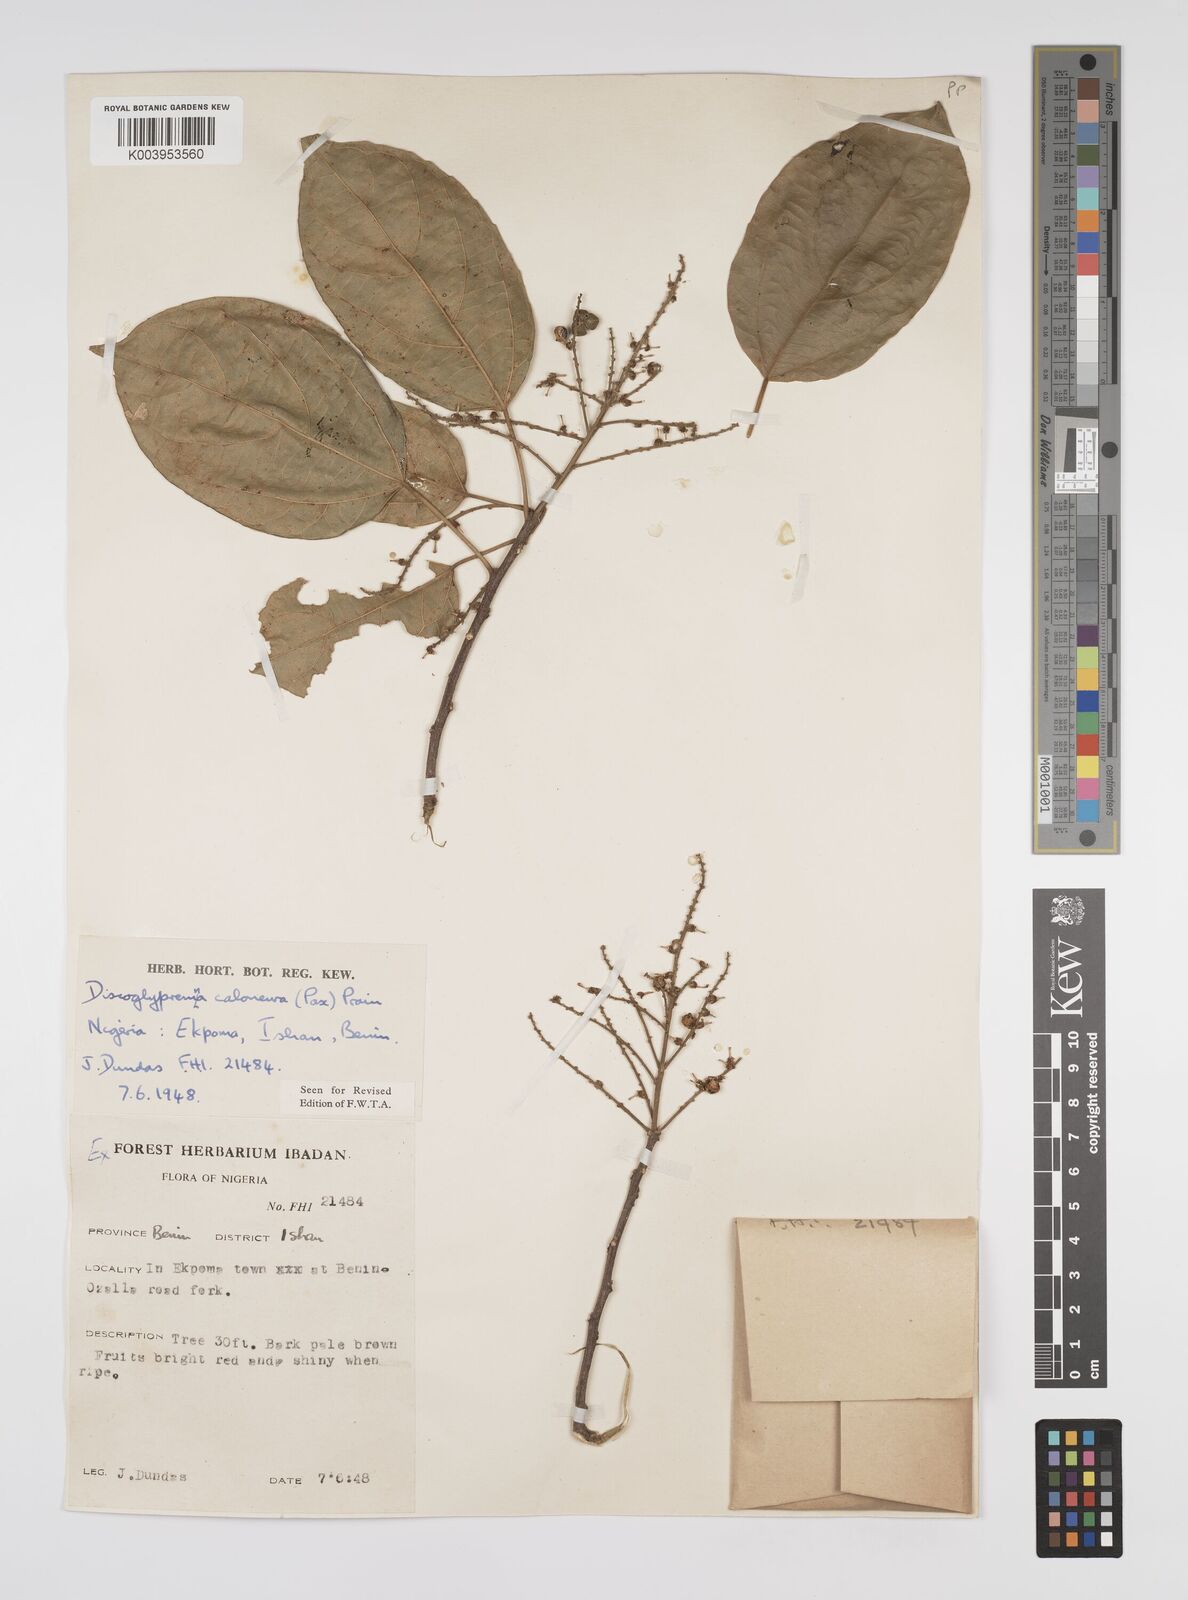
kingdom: Plantae
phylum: Tracheophyta
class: Magnoliopsida
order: Malpighiales
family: Euphorbiaceae
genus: Discoglypremna
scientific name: Discoglypremna caloneura
